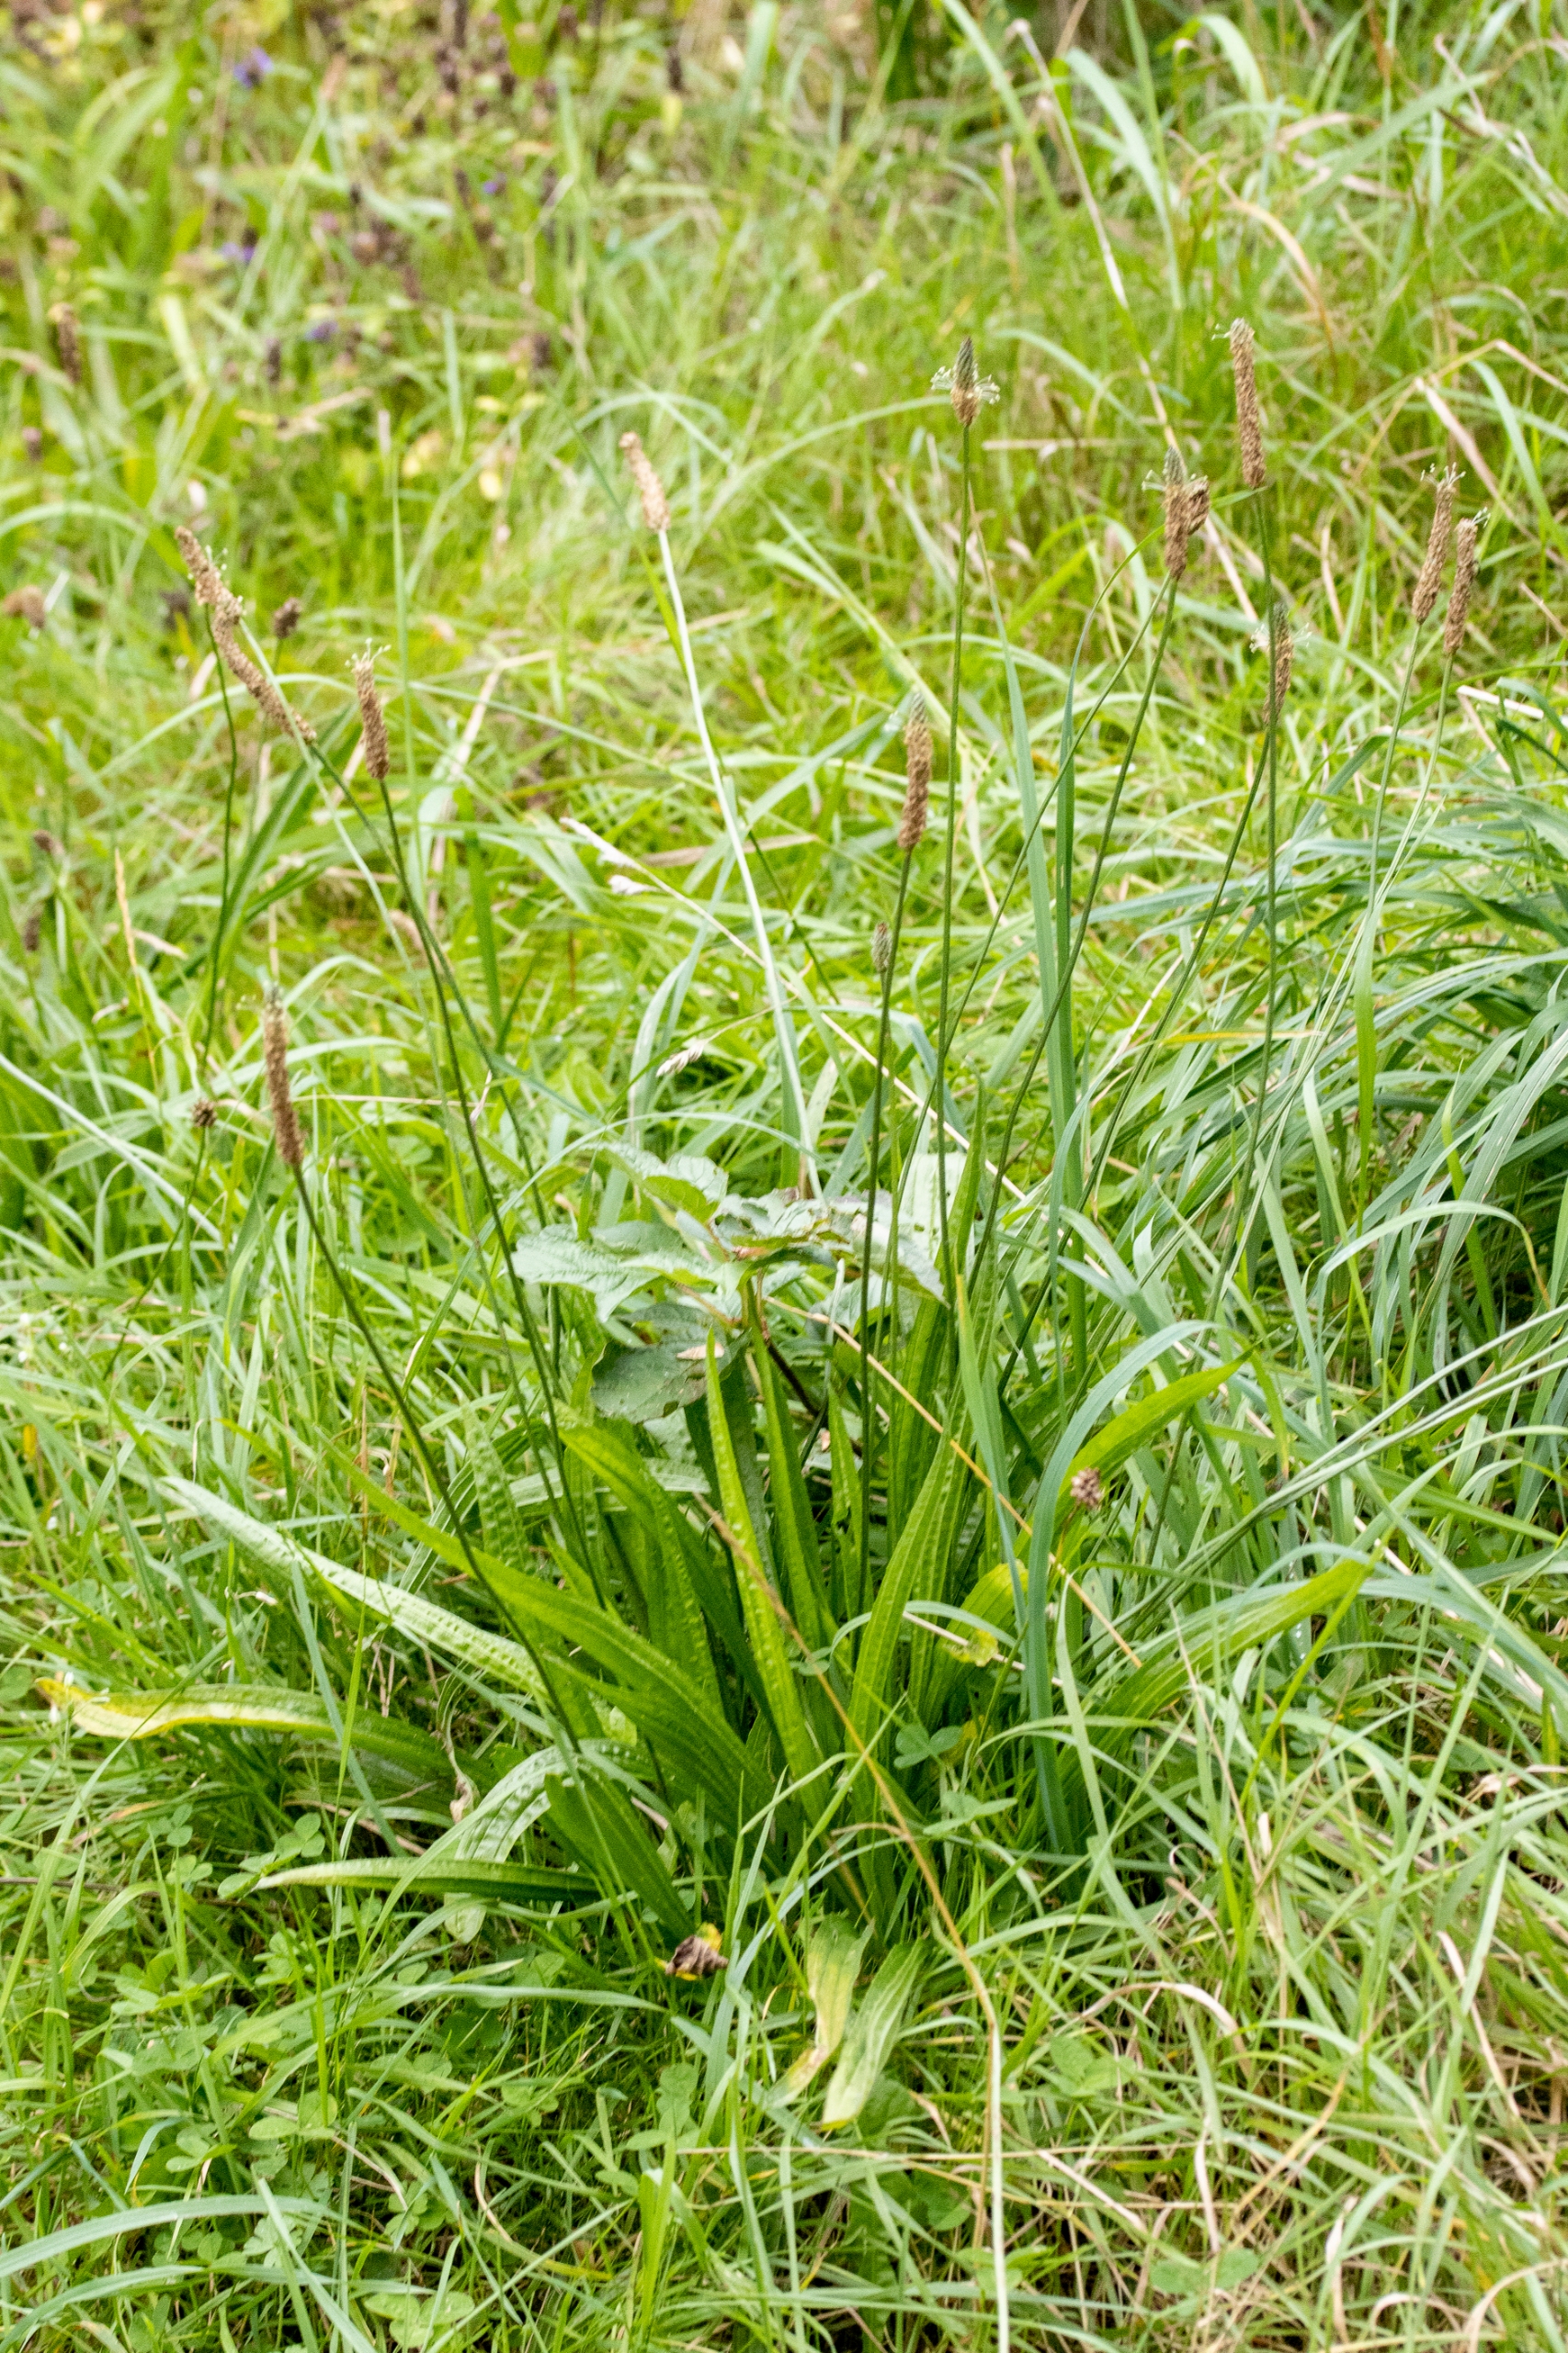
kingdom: Plantae
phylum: Tracheophyta
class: Magnoliopsida
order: Lamiales
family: Plantaginaceae
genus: Plantago
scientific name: Plantago lanceolata
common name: Lancet-vejbred
